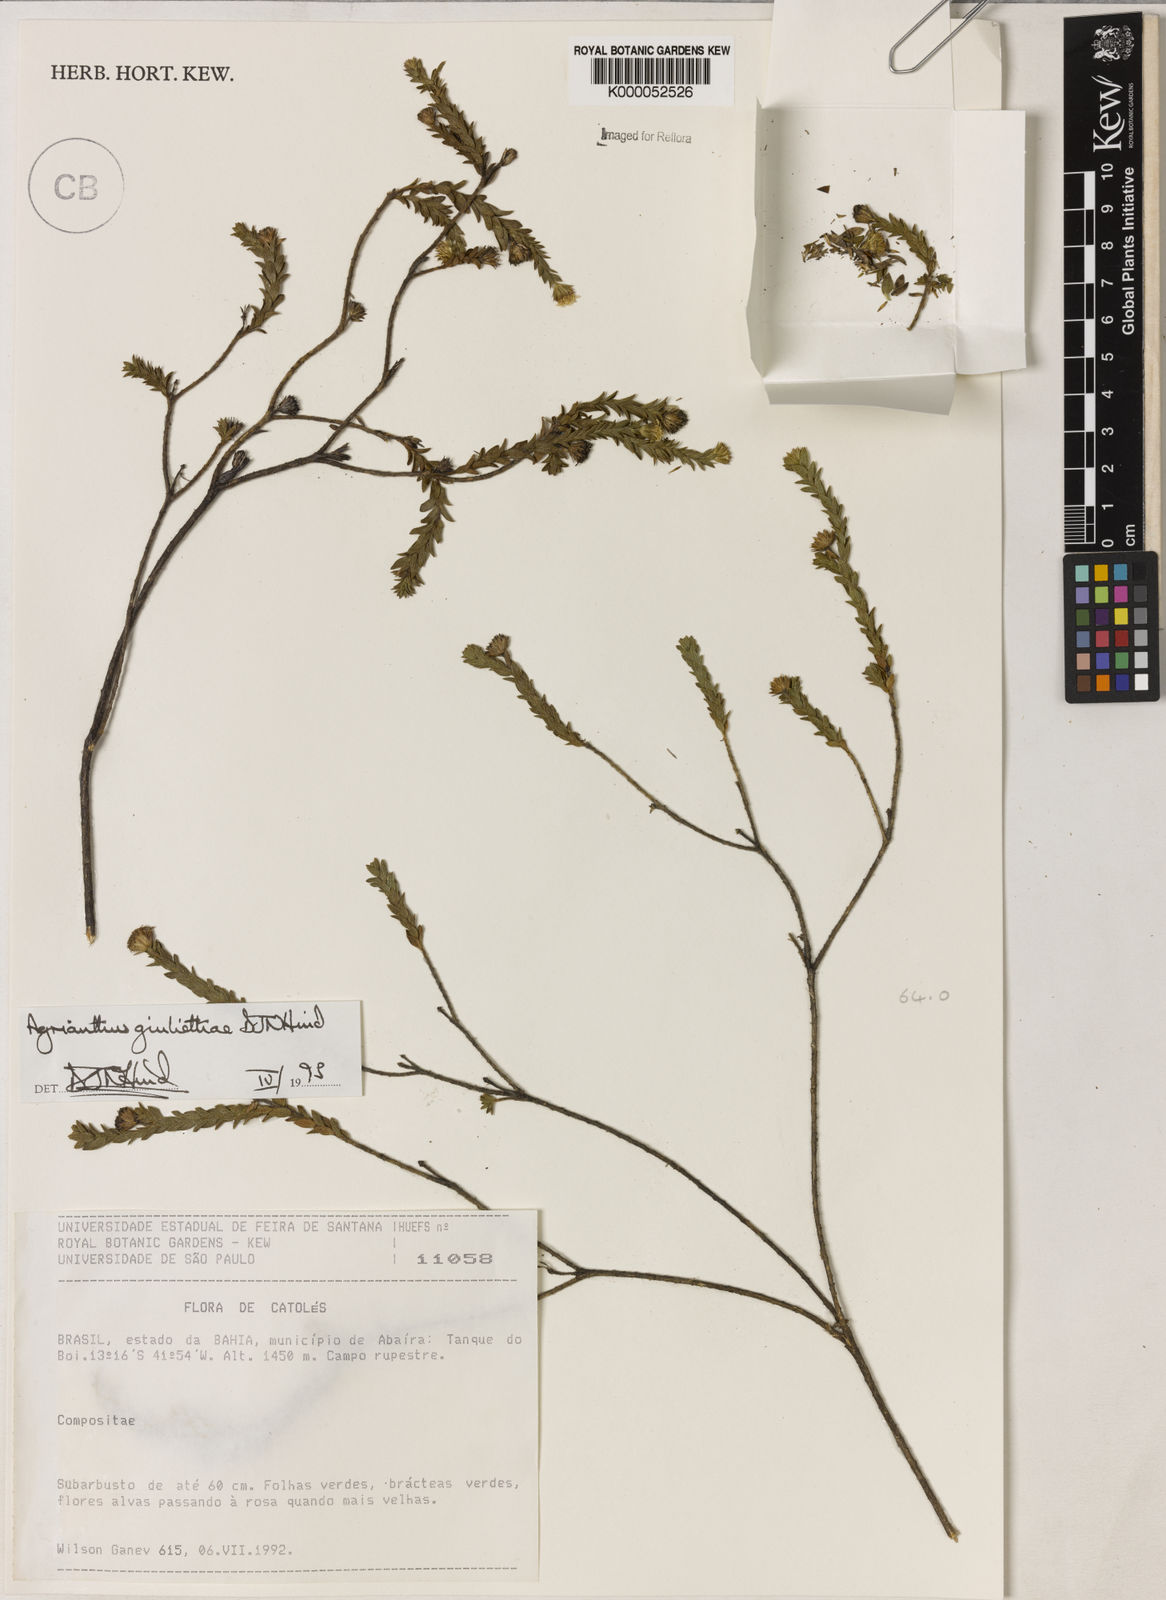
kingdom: Plantae
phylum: Tracheophyta
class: Magnoliopsida
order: Asterales
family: Asteraceae
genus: Agrianthus
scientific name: Agrianthus giuliettiae
